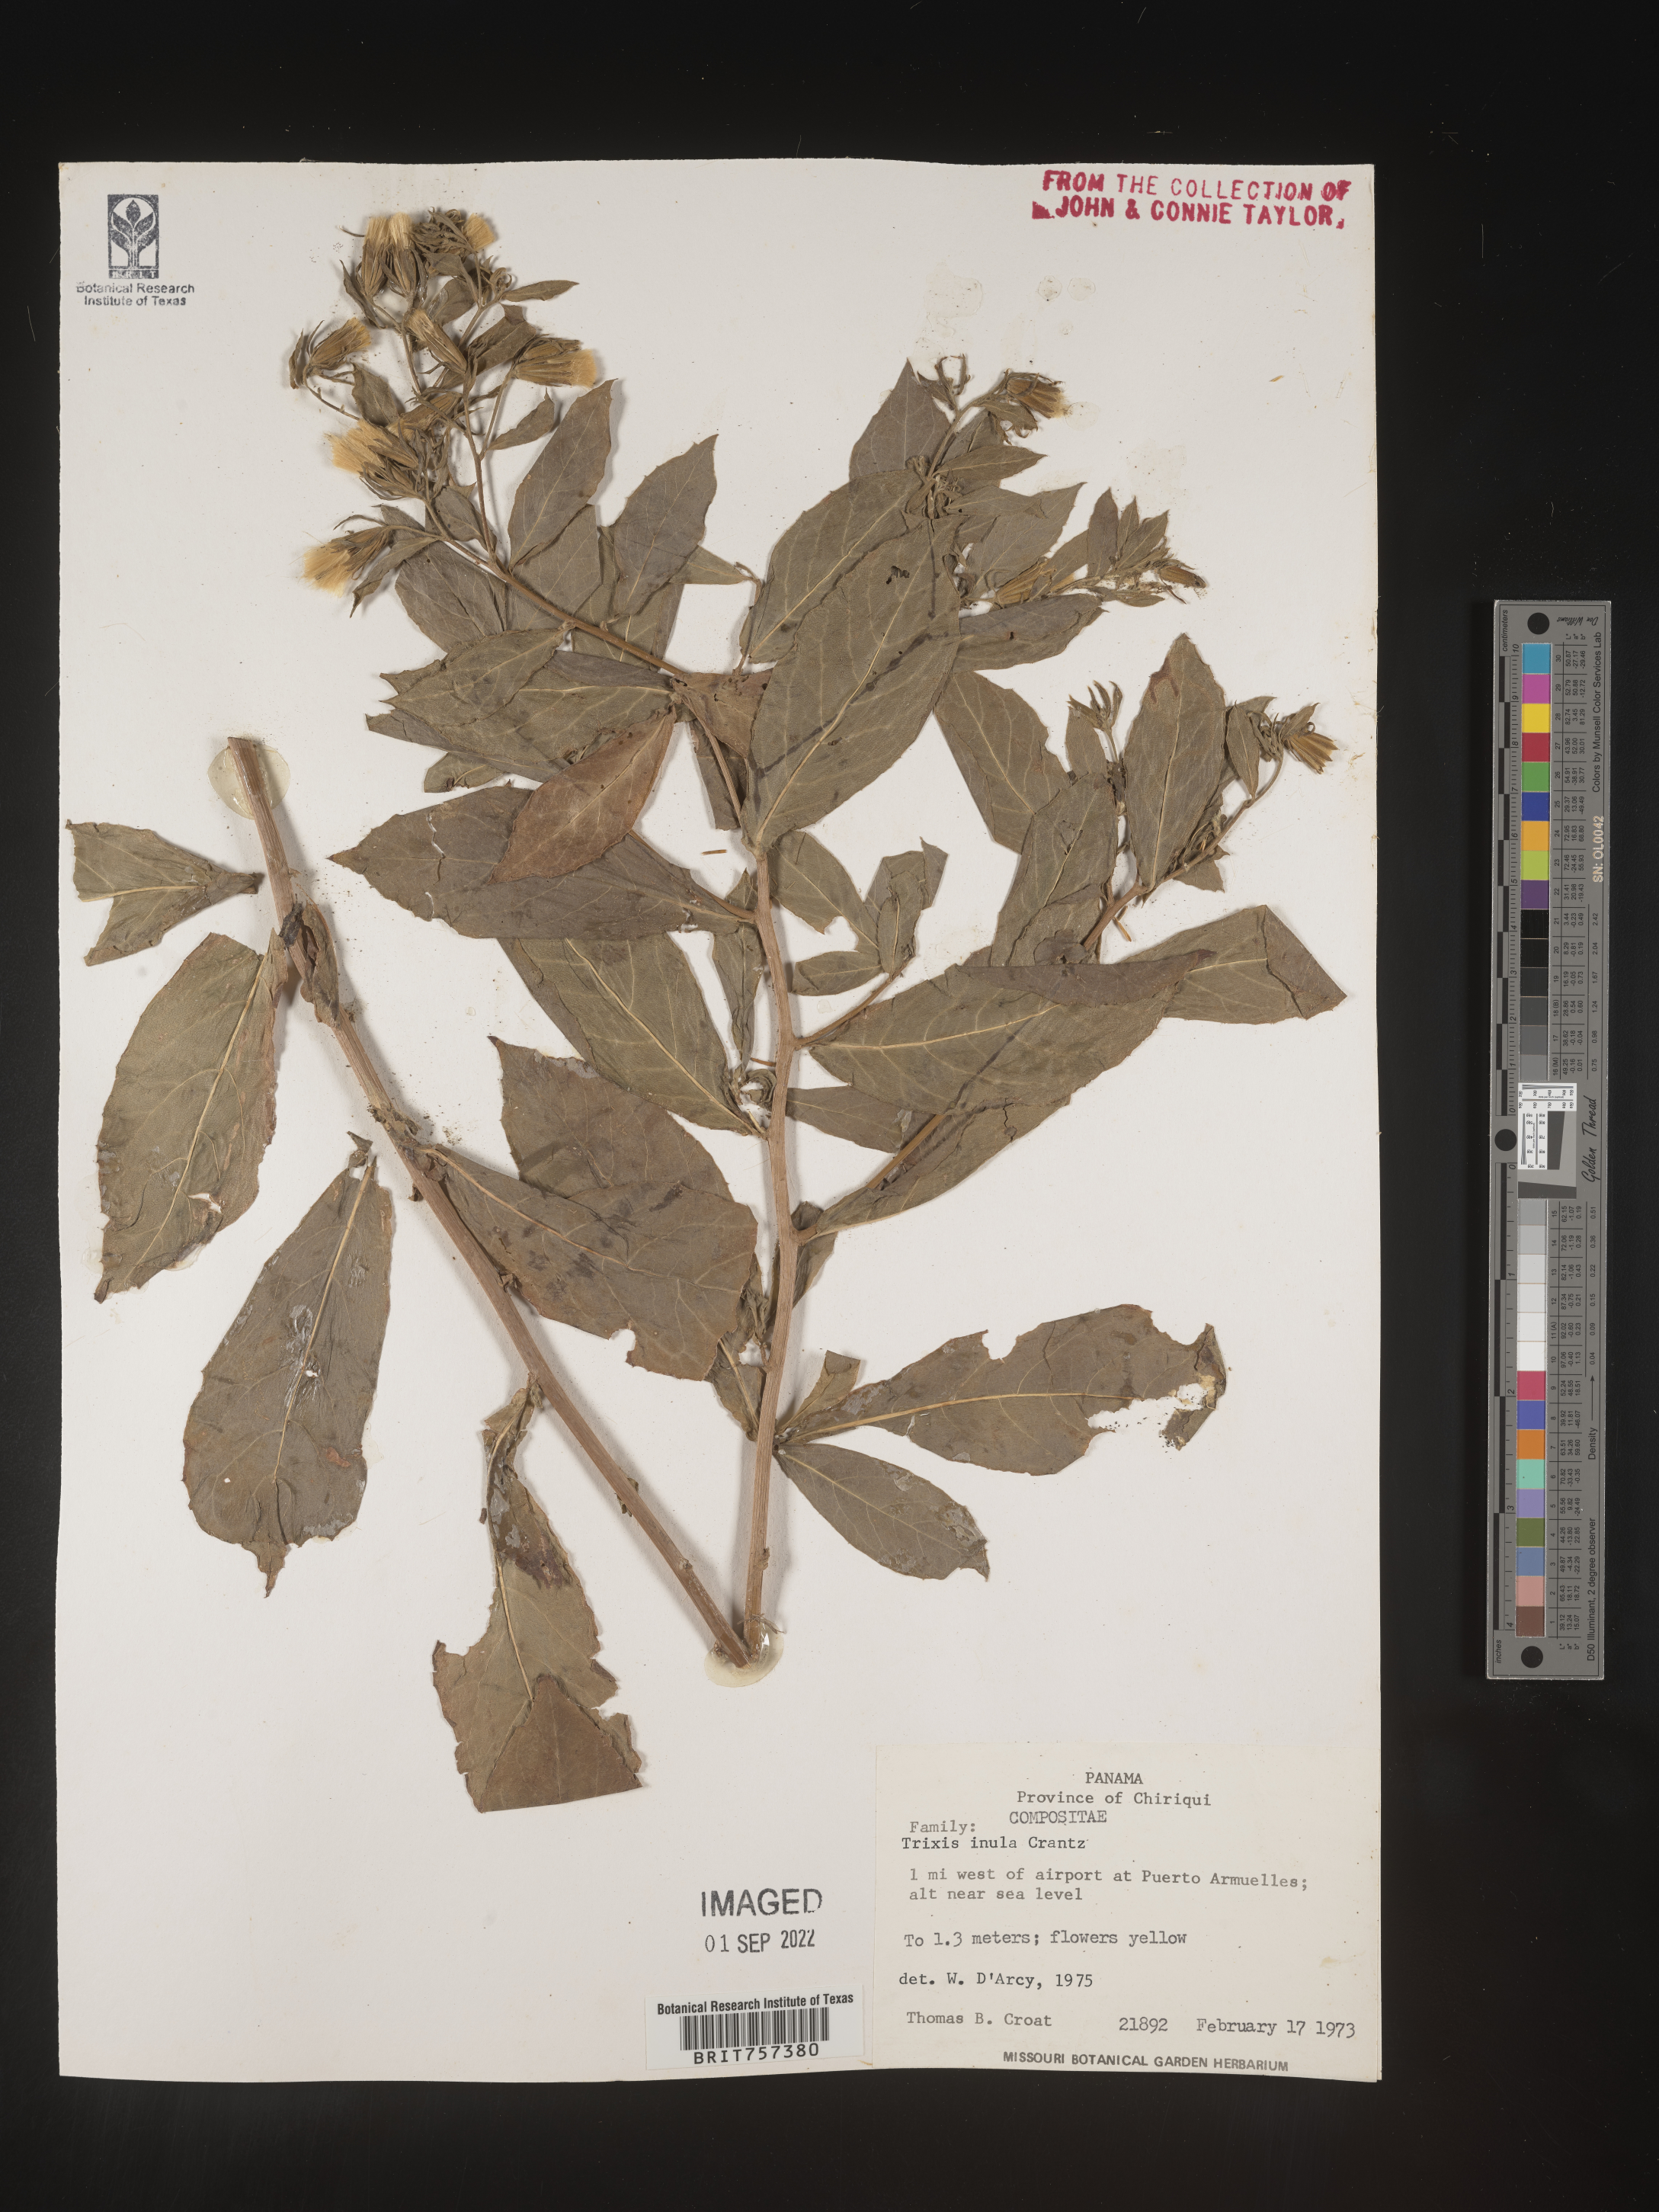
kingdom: Plantae
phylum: Tracheophyta
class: Magnoliopsida
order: Asterales
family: Asteraceae
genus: Trixis
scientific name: Trixis
